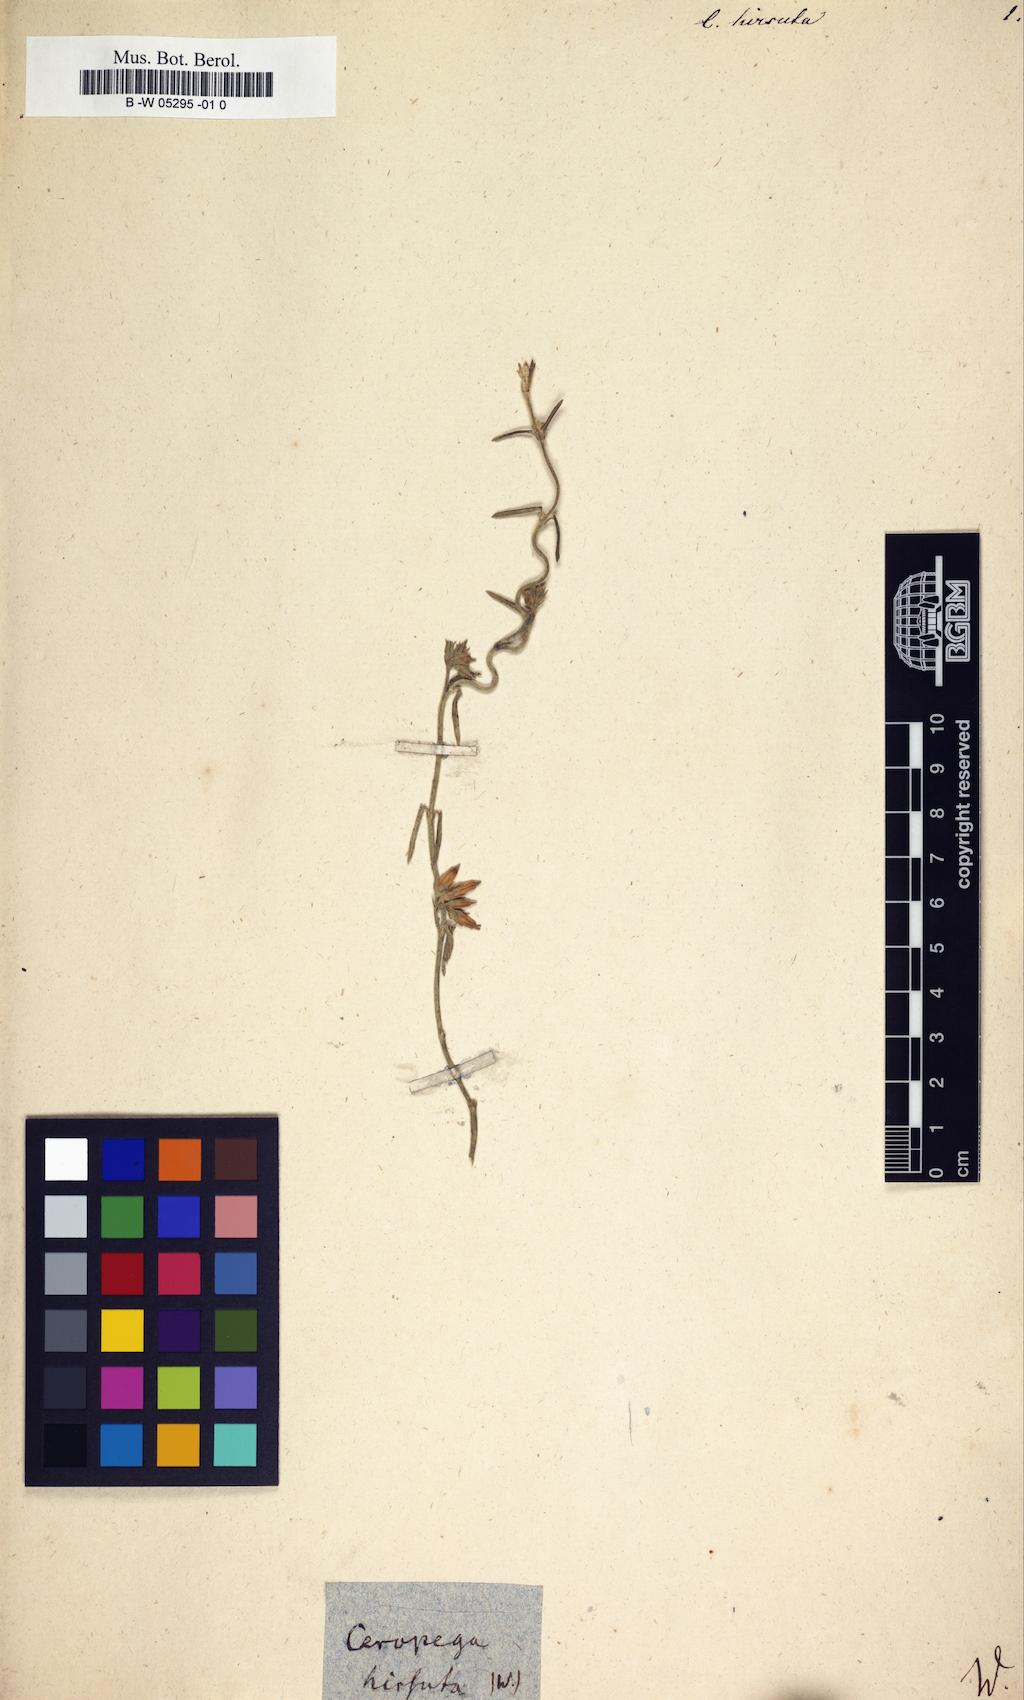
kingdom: Plantae
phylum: Tracheophyta
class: Magnoliopsida
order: Gentianales
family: Apocynaceae
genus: Ceropegia
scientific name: Ceropegia hirsuta
